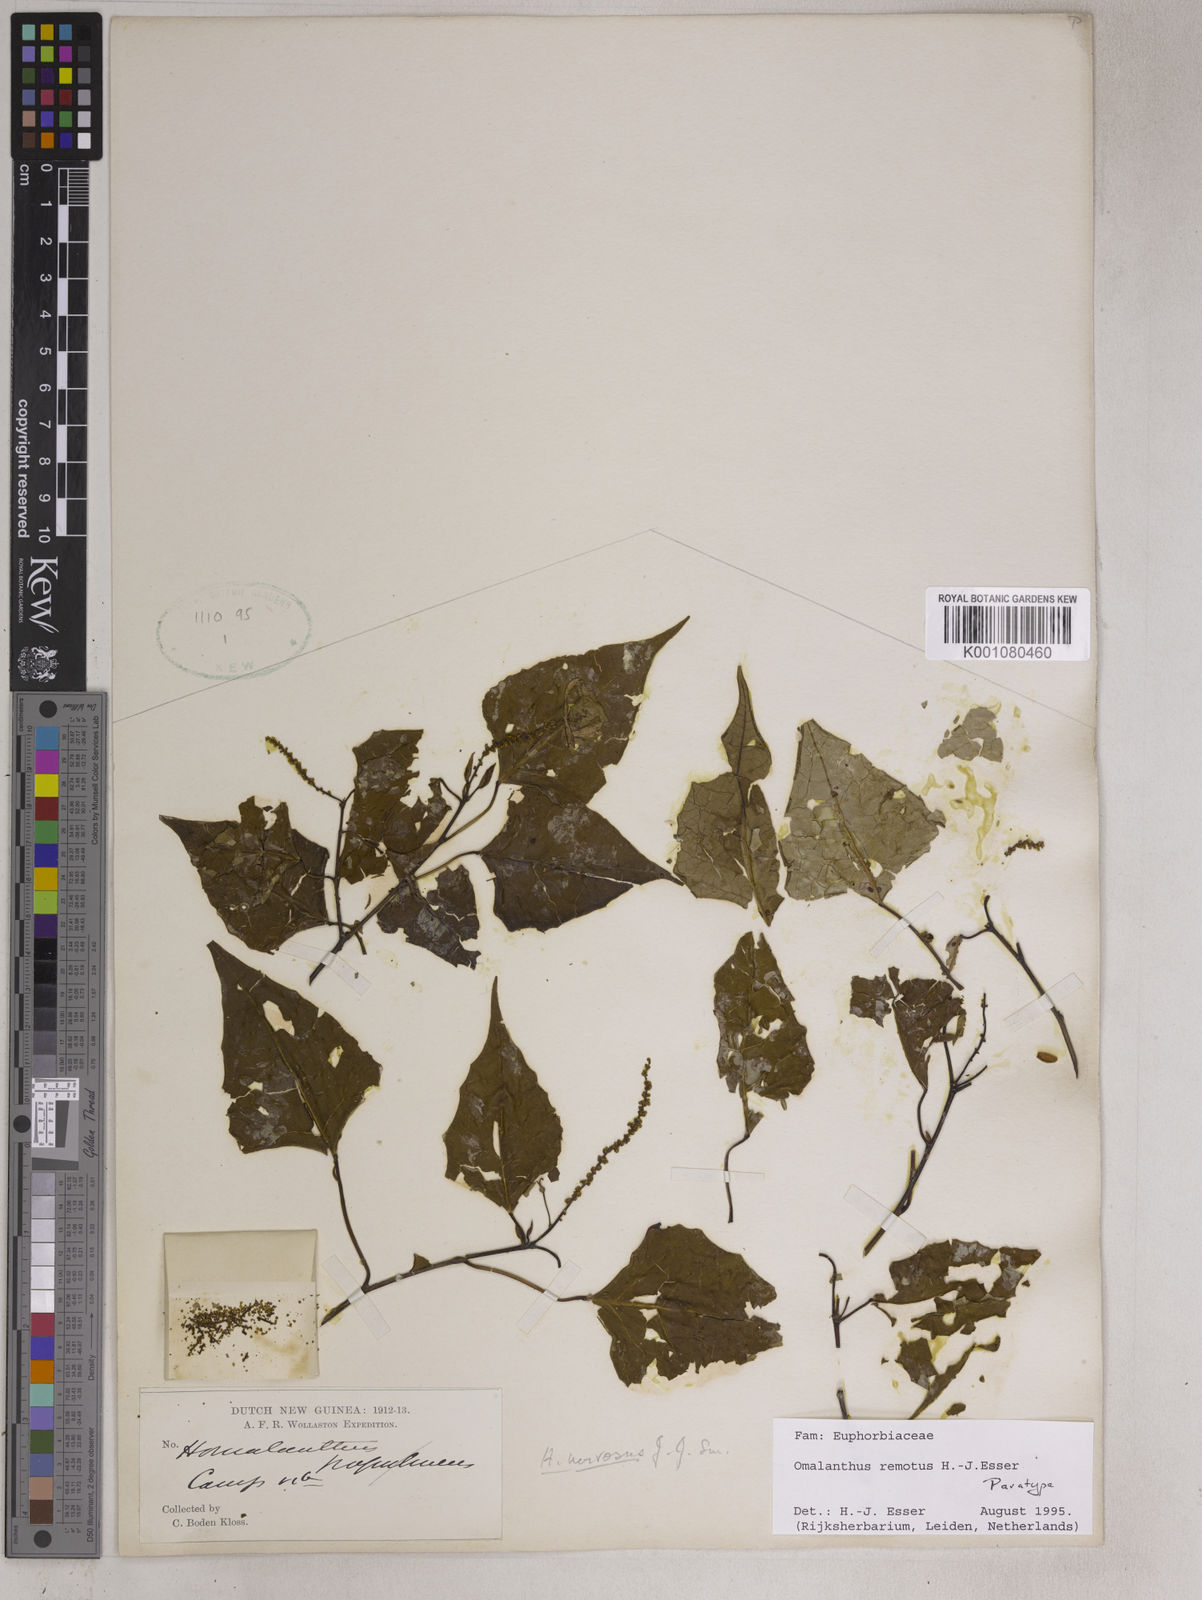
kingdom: Plantae
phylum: Tracheophyta
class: Magnoliopsida
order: Malpighiales
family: Euphorbiaceae
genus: Homalanthus
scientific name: Homalanthus remotus
